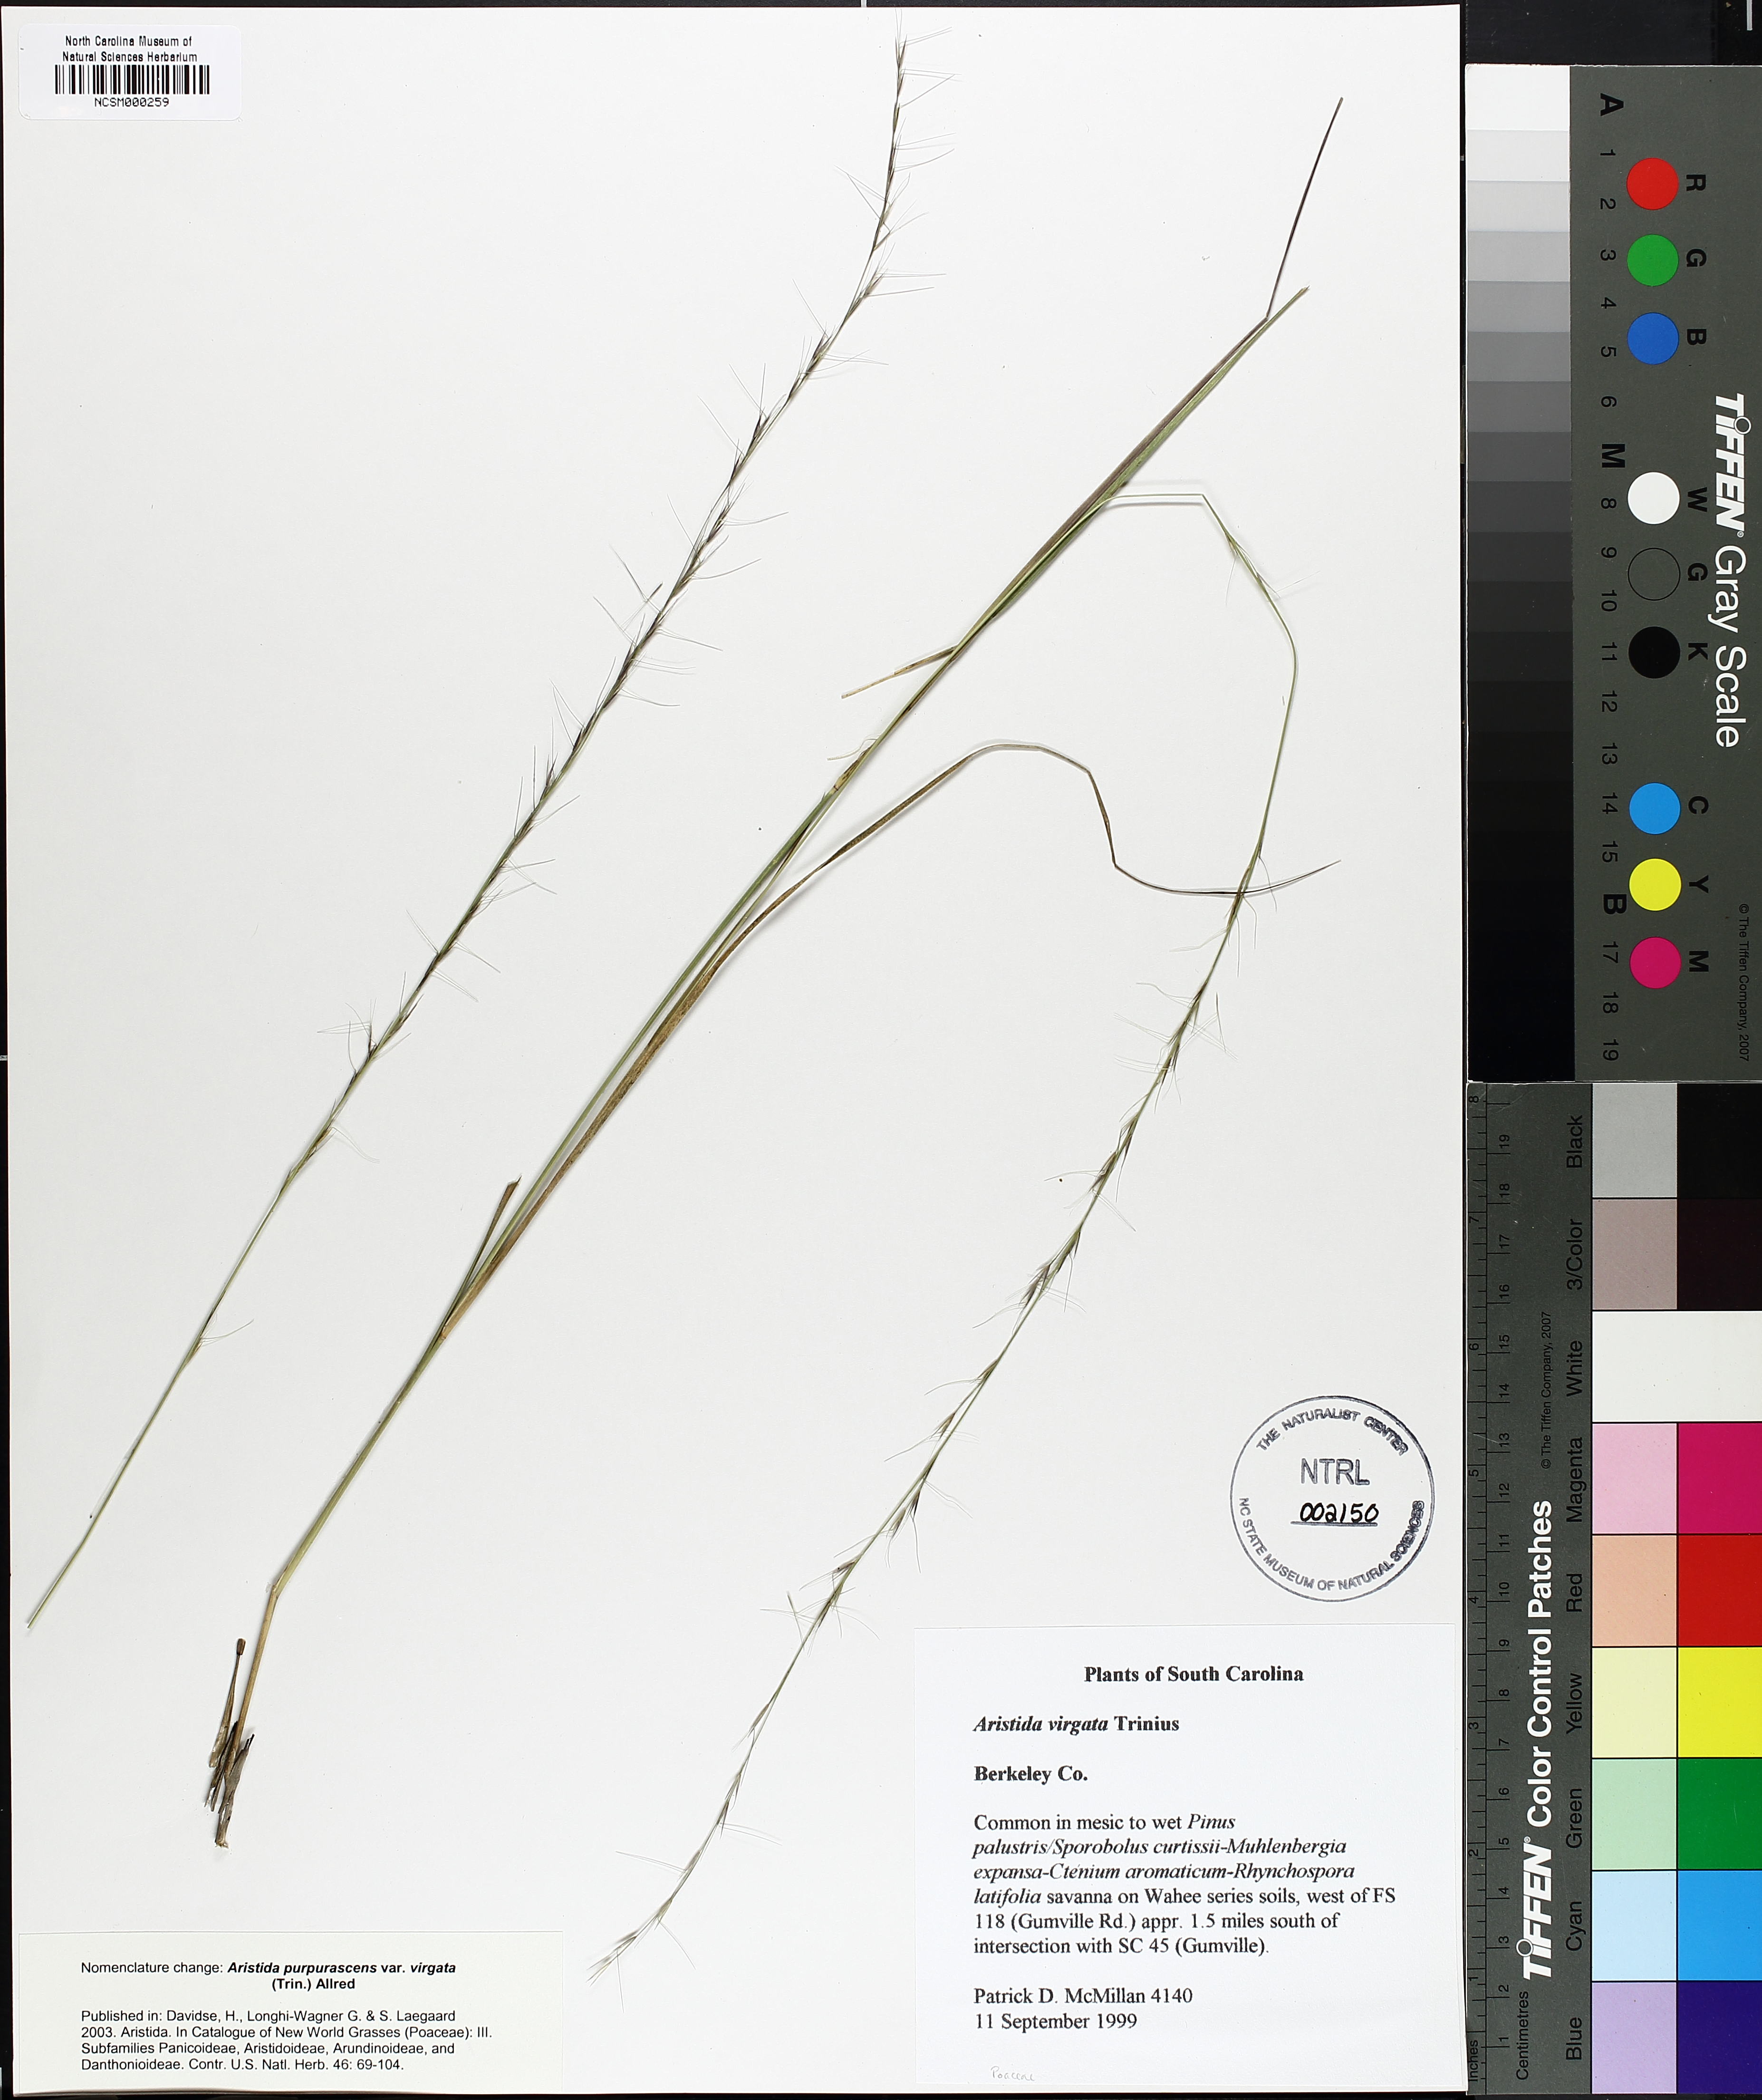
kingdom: Plantae
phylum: Tracheophyta
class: Liliopsida
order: Poales
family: Poaceae
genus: Aristida
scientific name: Aristida virgata
